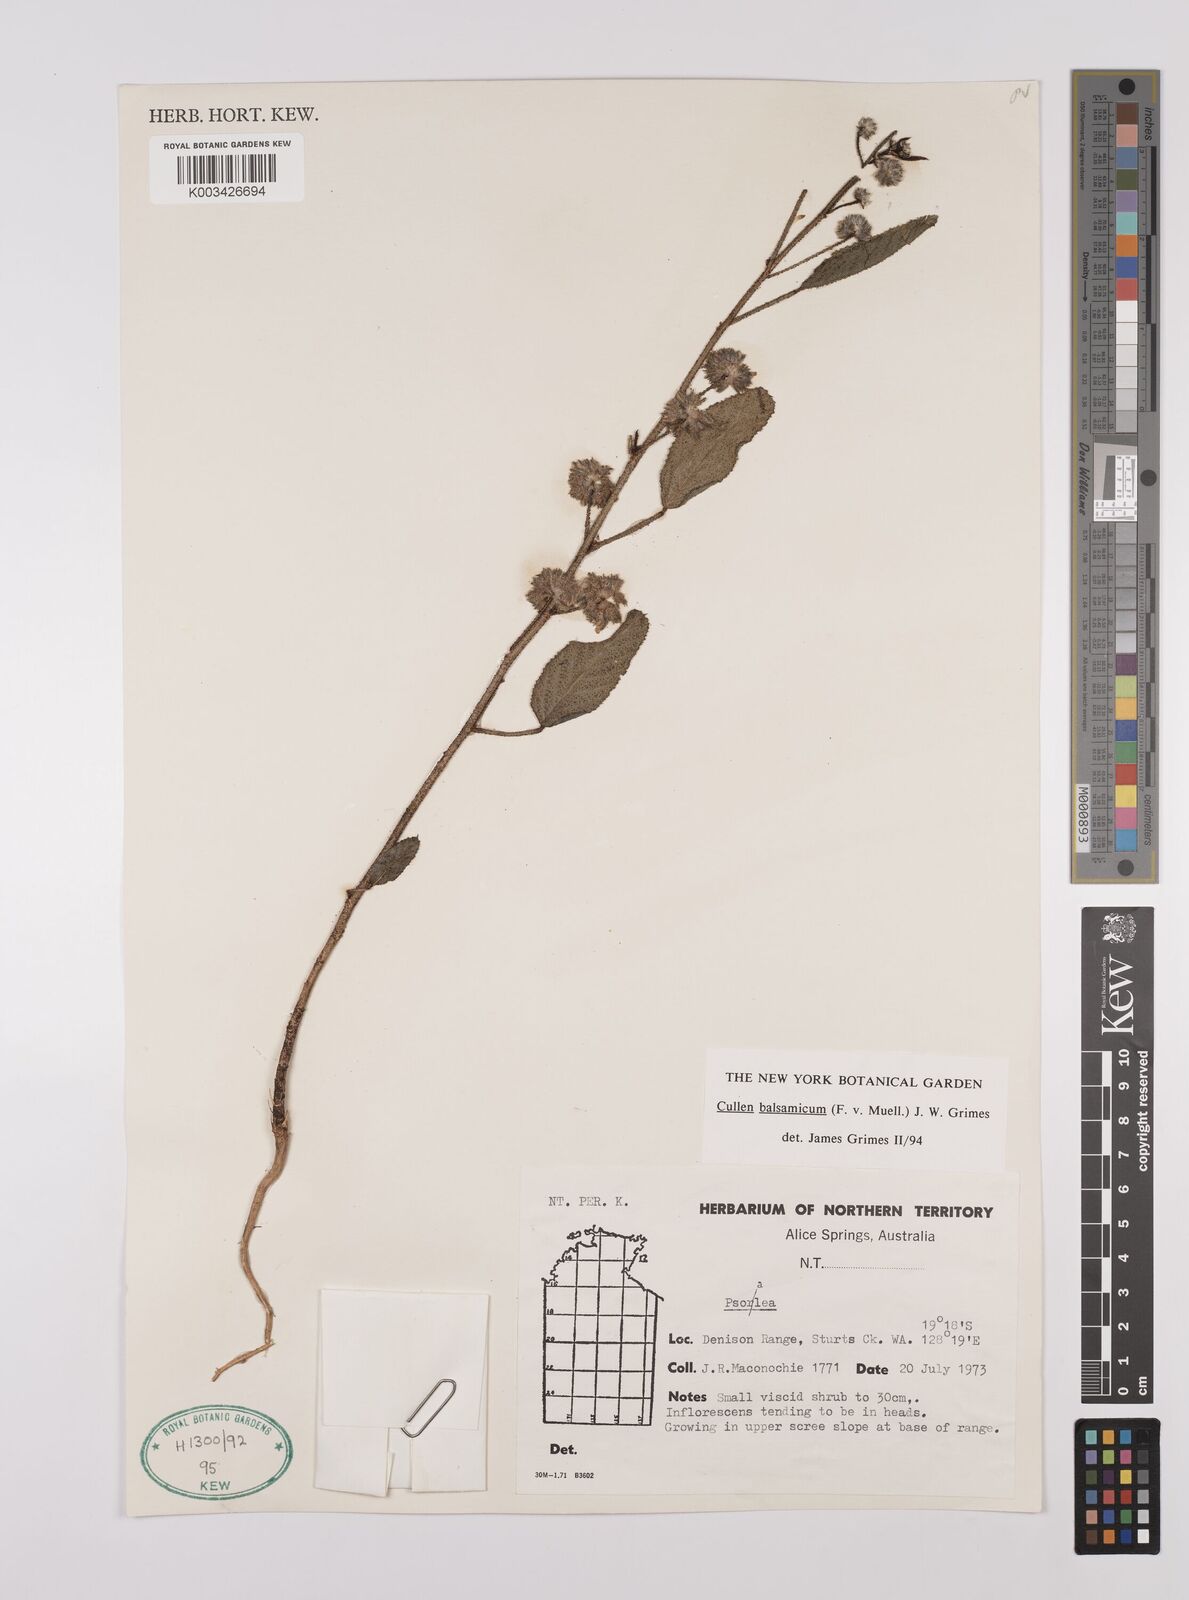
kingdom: Plantae
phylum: Tracheophyta
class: Magnoliopsida
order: Fabales
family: Fabaceae
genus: Cullen
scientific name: Cullen balsamicum
